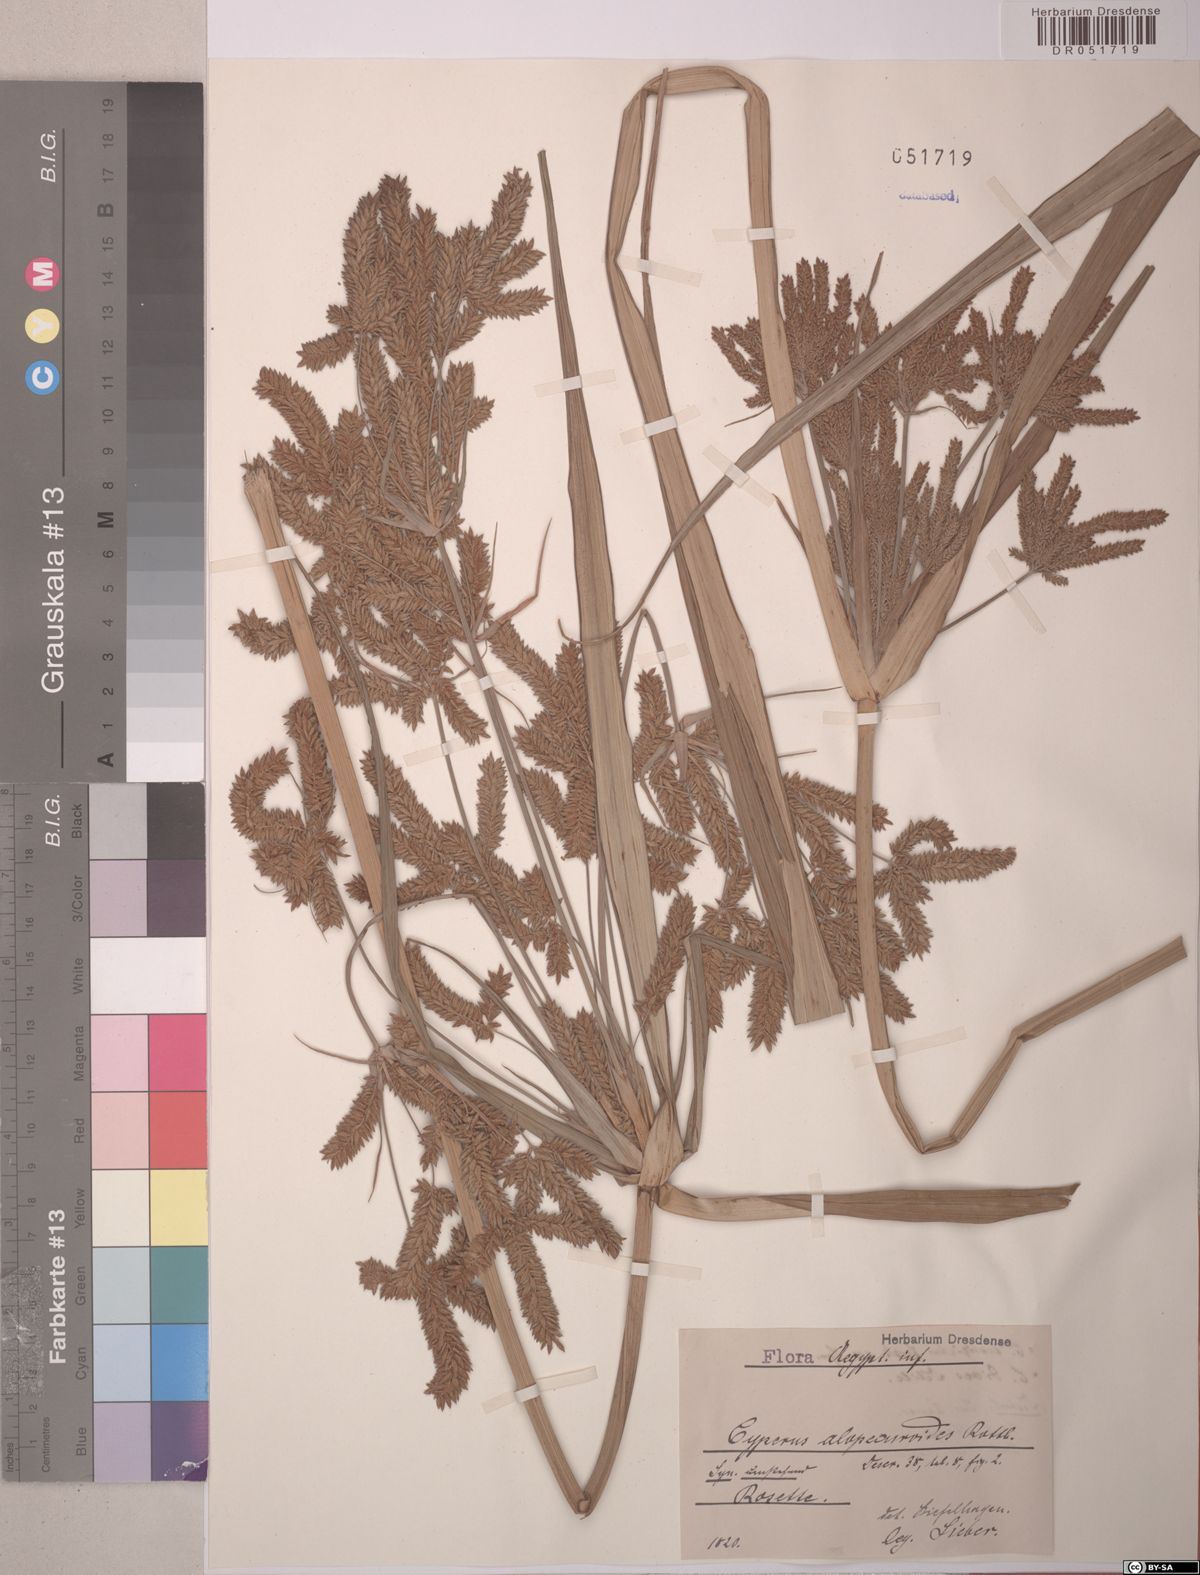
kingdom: Plantae
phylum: Tracheophyta
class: Liliopsida
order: Poales
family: Cyperaceae
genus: Cyperus
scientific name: Cyperus alopecuroides
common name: Foxtail flatsedge
